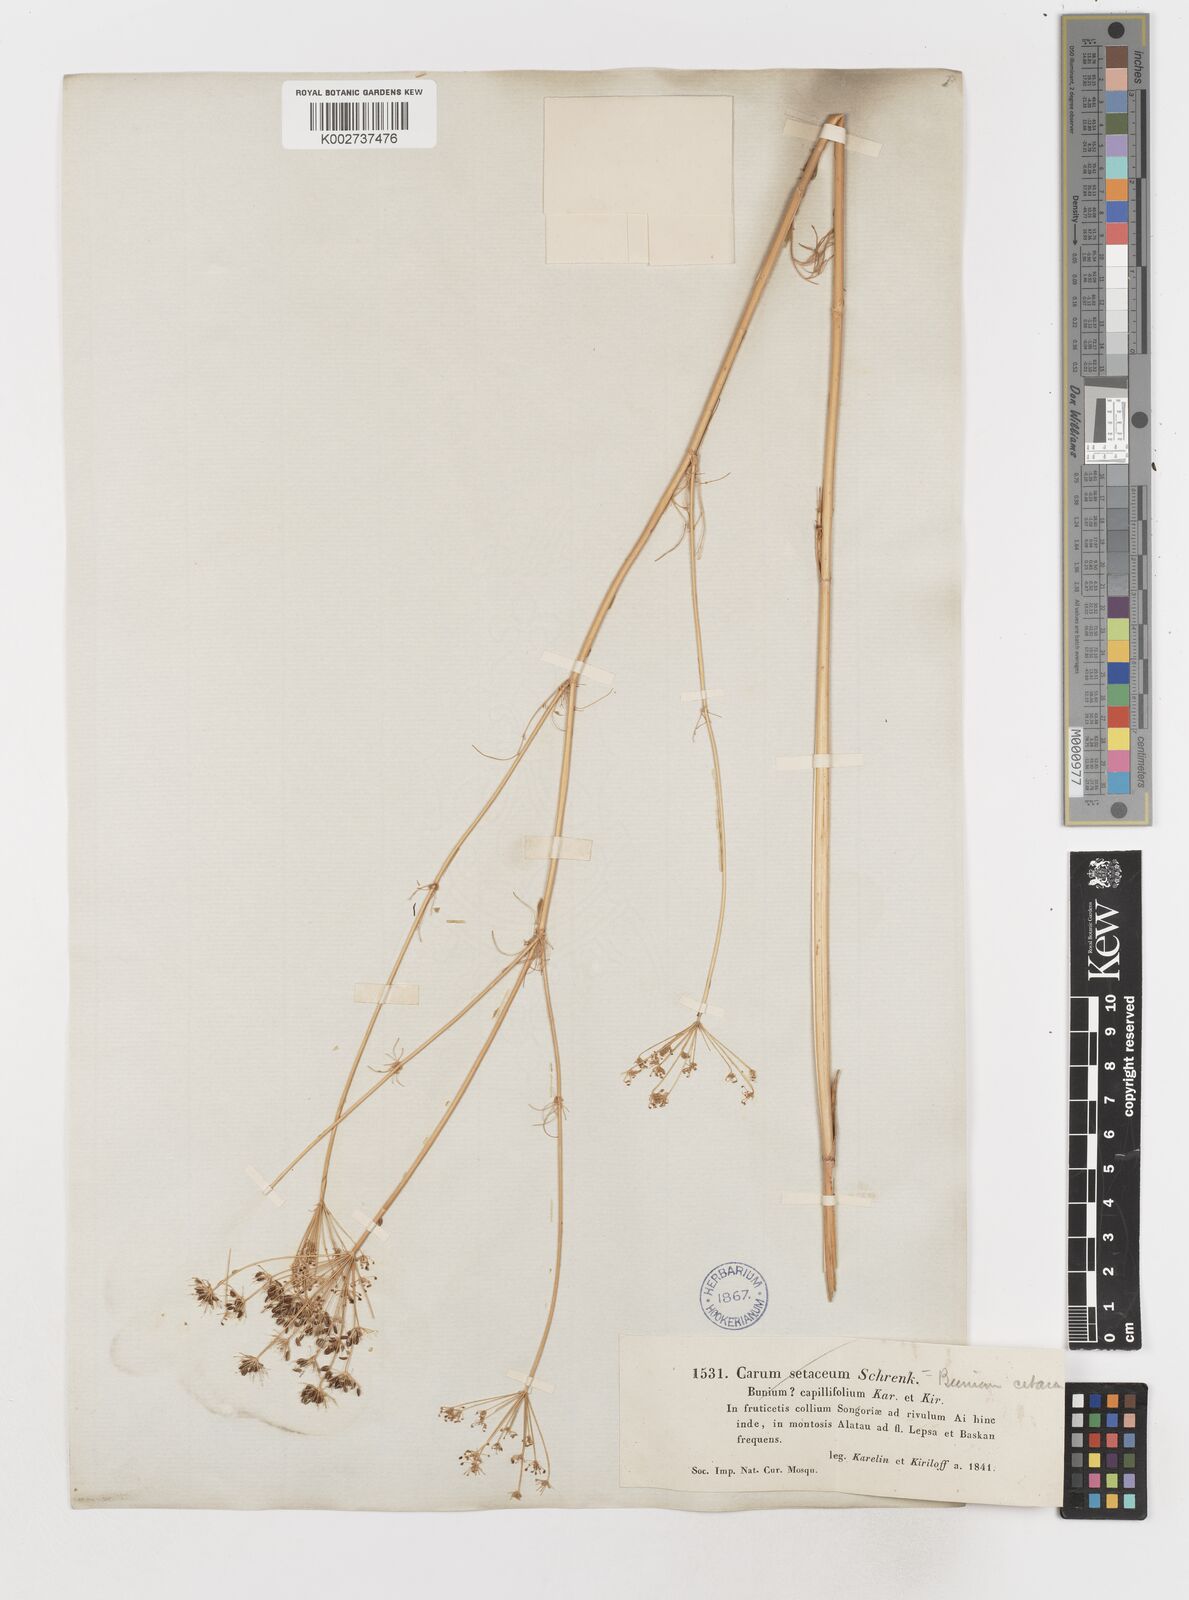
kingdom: Plantae
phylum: Tracheophyta
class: Magnoliopsida
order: Apiales
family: Apiaceae
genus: Scaligeria
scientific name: Scaligeria napiformis
